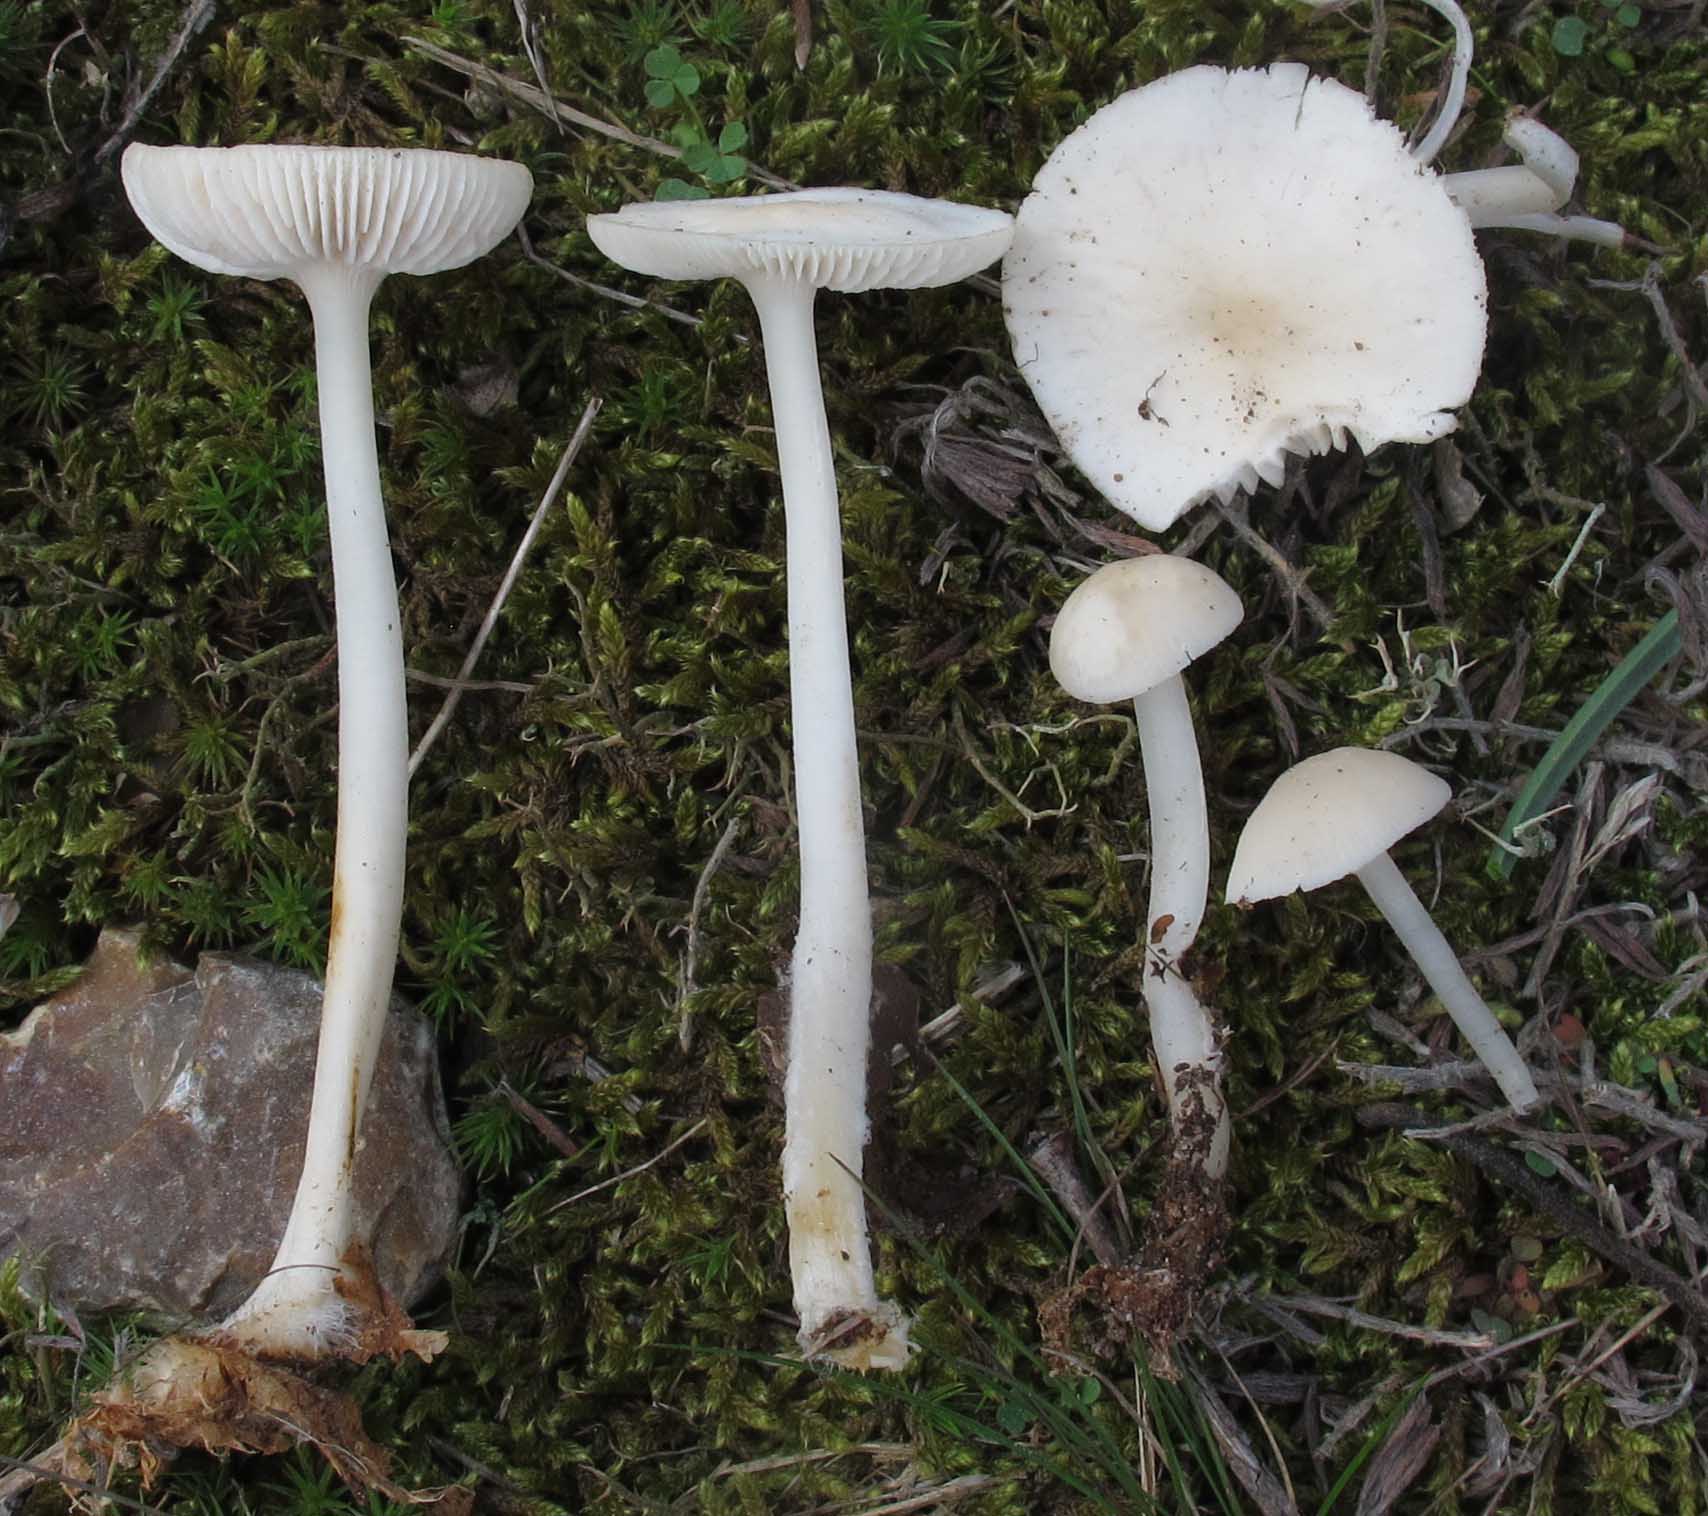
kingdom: Fungi
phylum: Basidiomycota
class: Agaricomycetes
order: Agaricales
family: Mycenaceae
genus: Mycena
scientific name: Mycena pura
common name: Lilac bonnet
